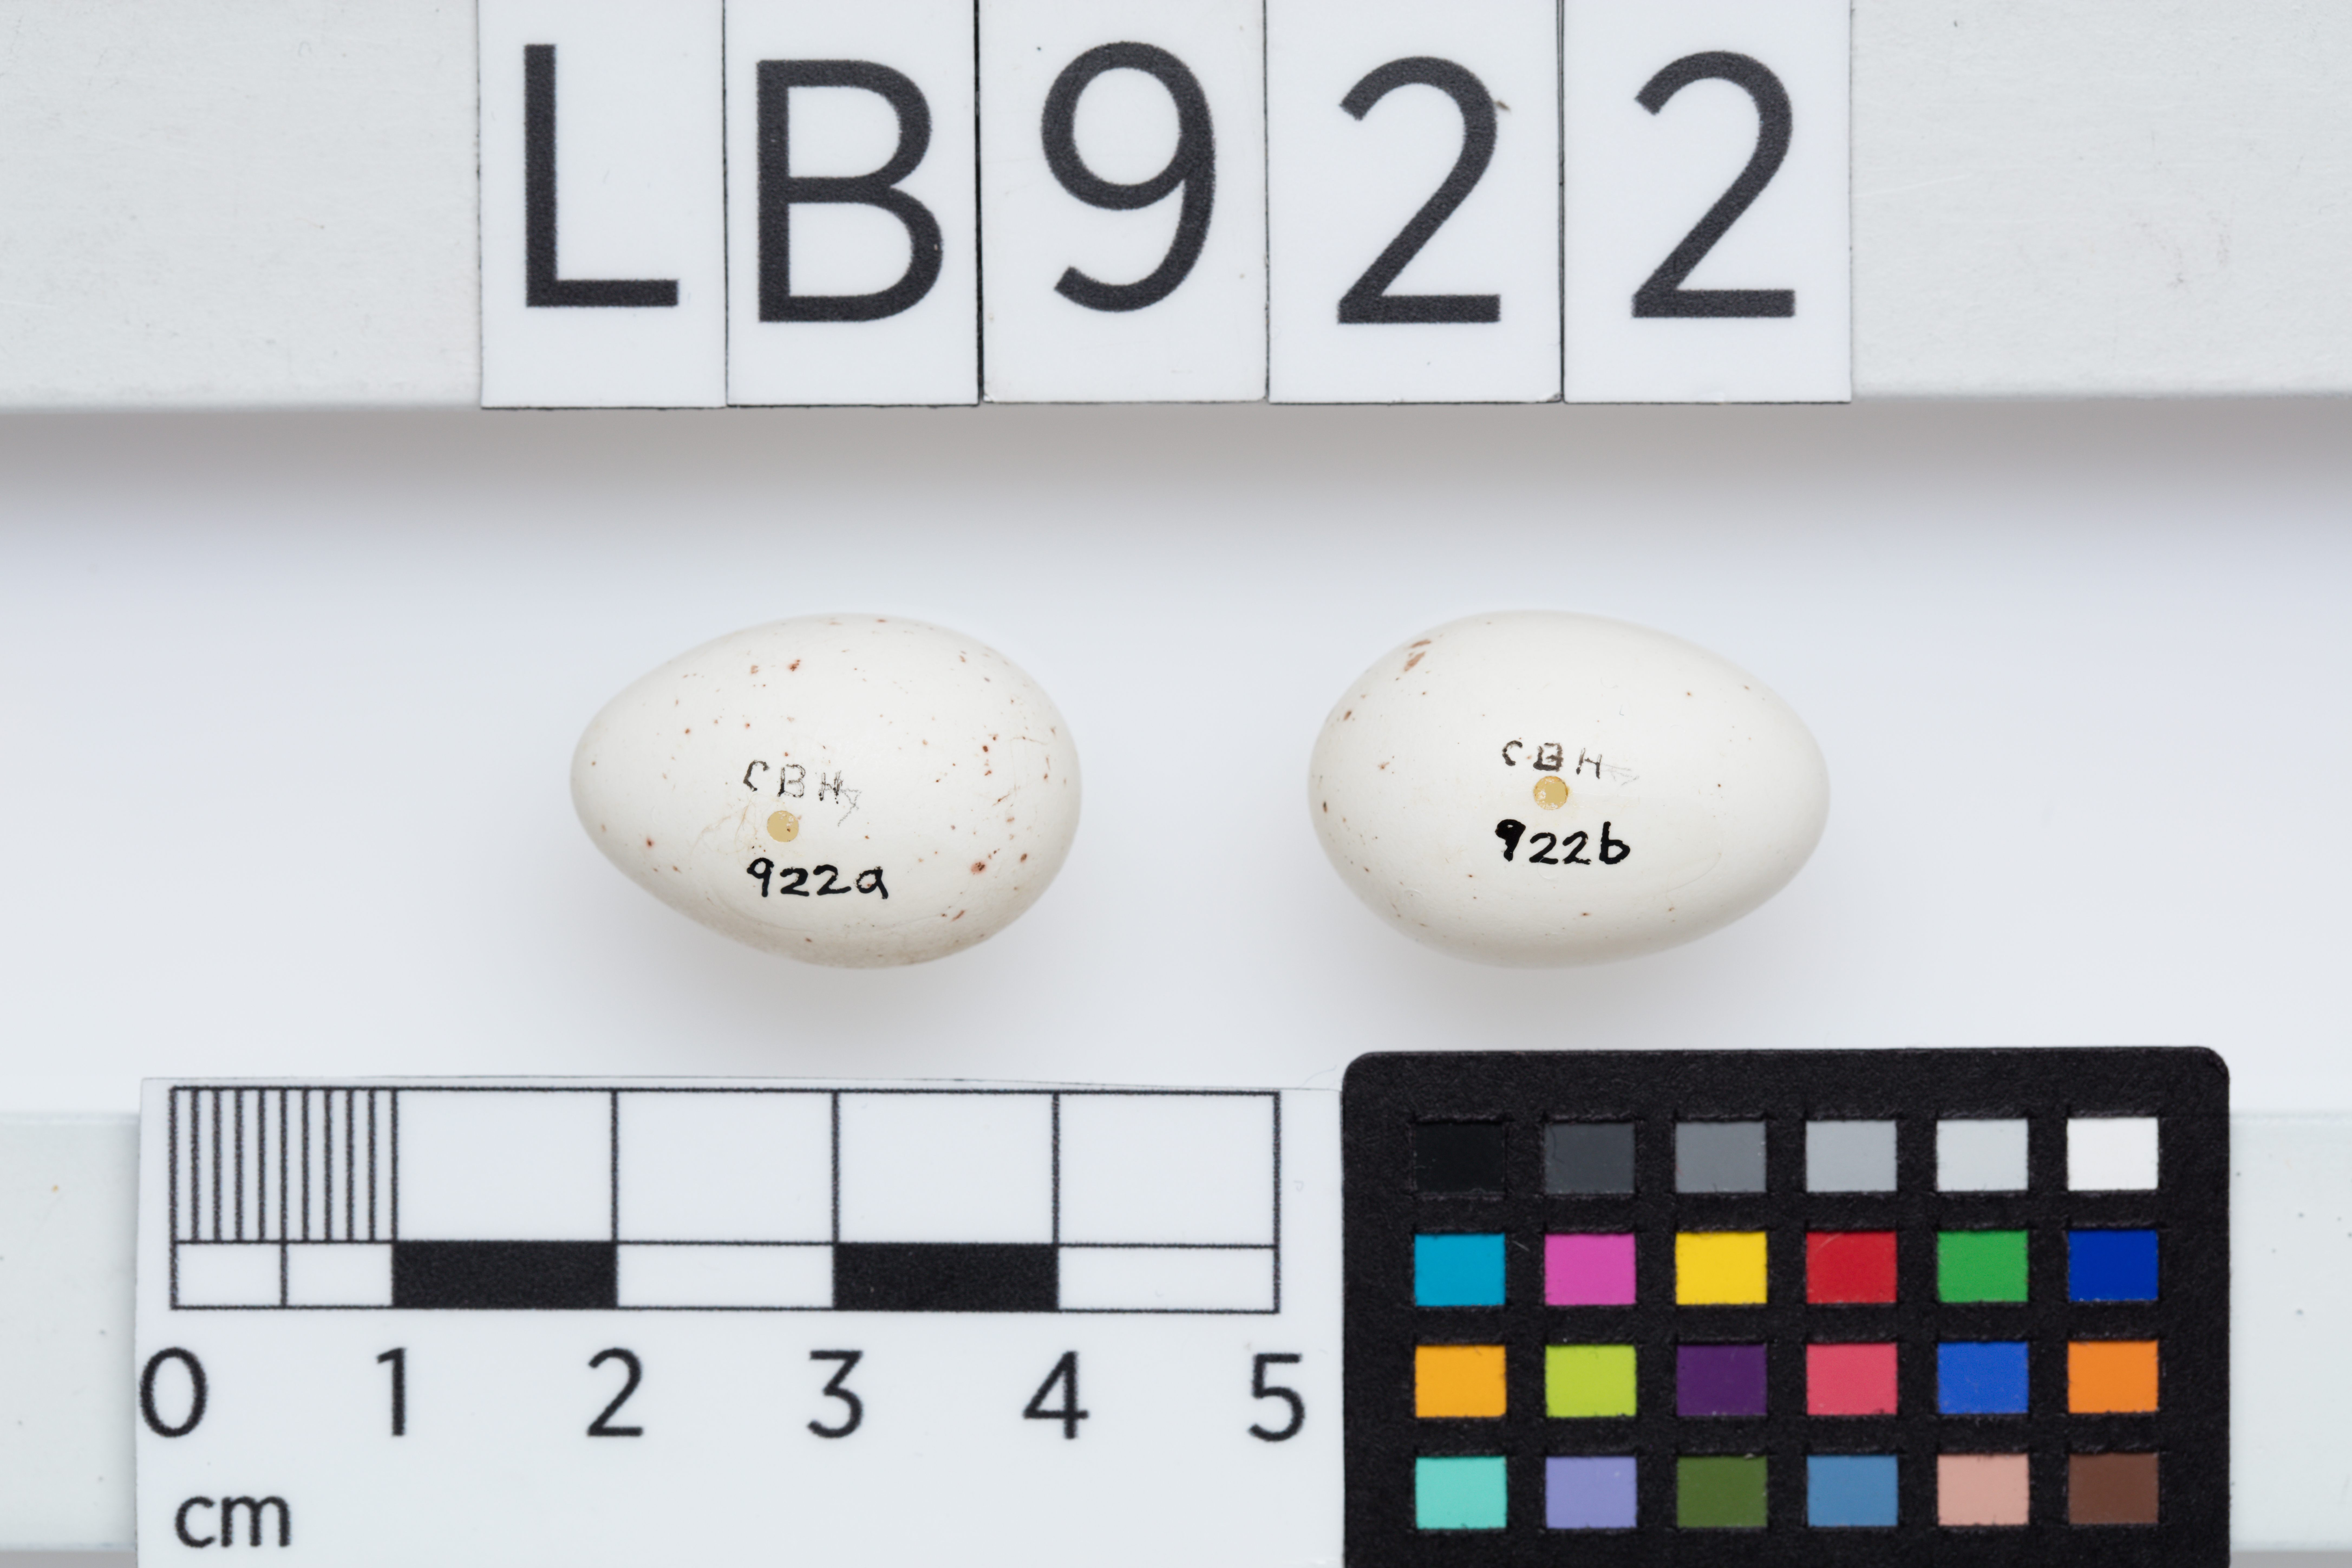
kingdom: Animalia
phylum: Chordata
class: Aves
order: Passeriformes
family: Meliphagidae
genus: Anthornis
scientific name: Anthornis melanura
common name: New zealand bellbird
